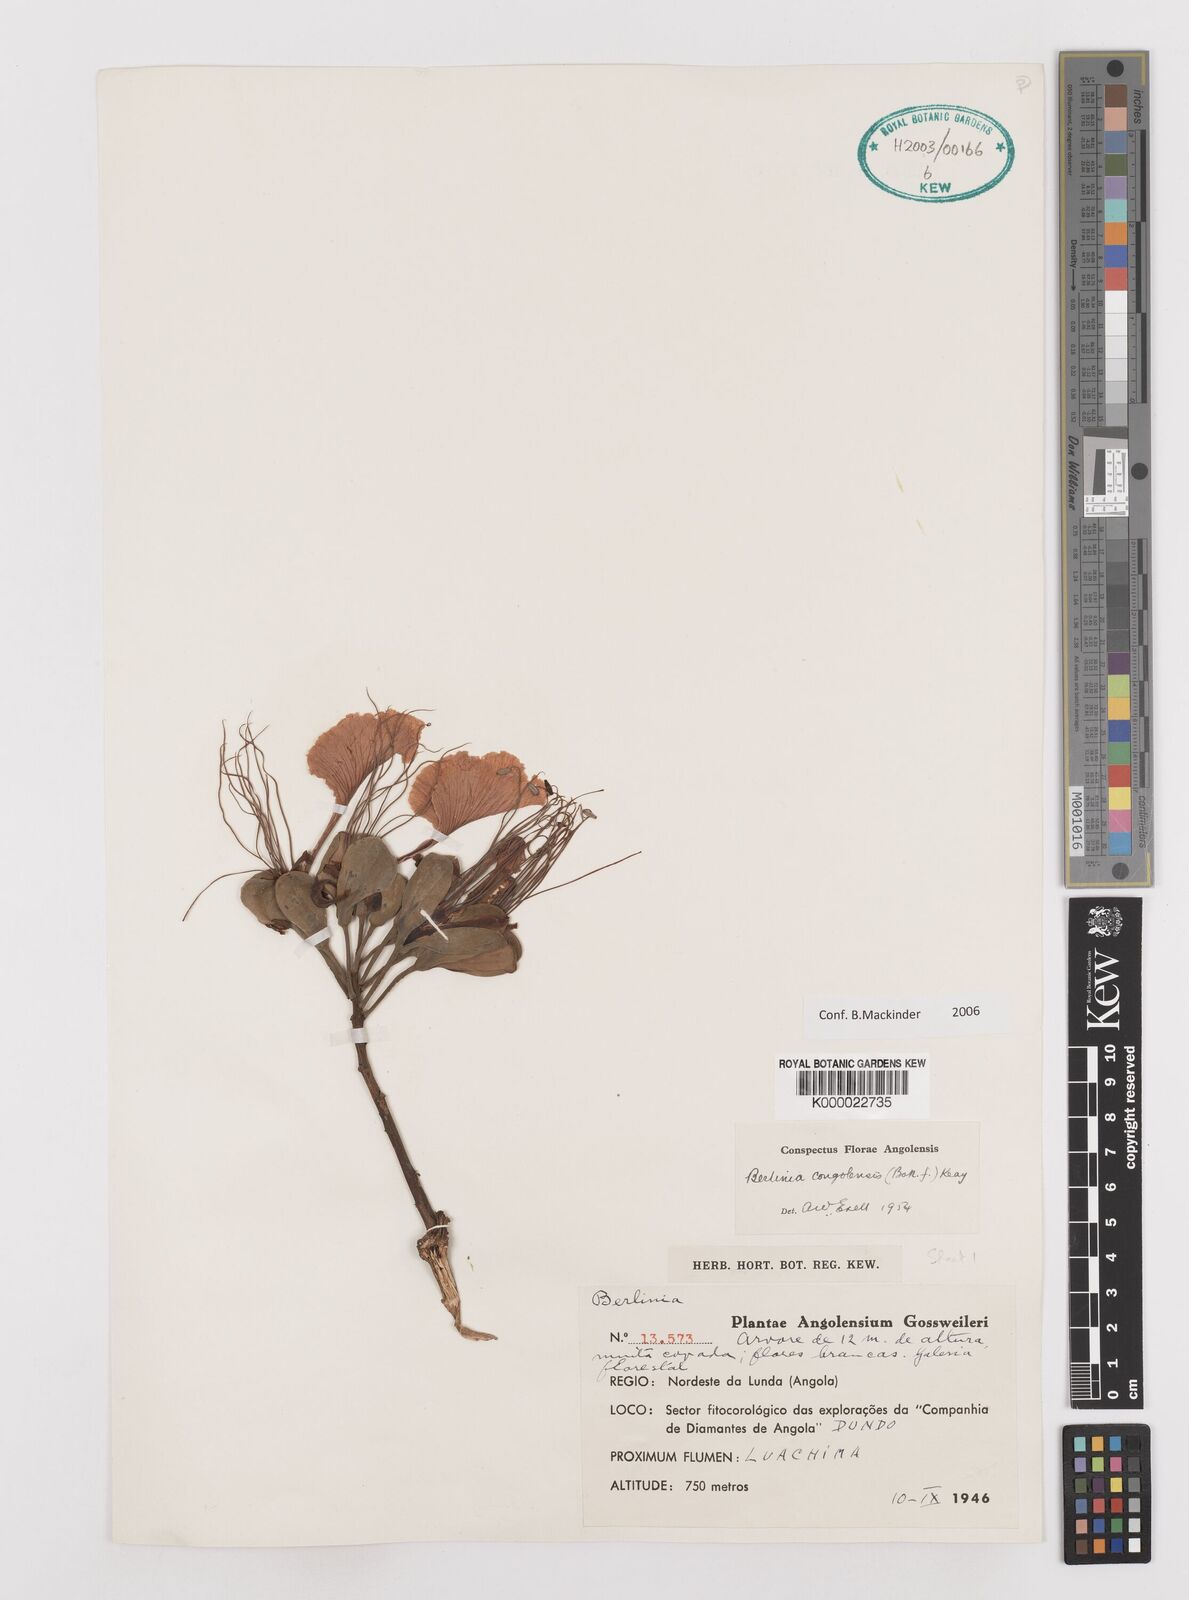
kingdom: Plantae
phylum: Tracheophyta
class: Magnoliopsida
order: Fabales
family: Fabaceae
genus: Berlinia
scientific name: Berlinia congolensis
